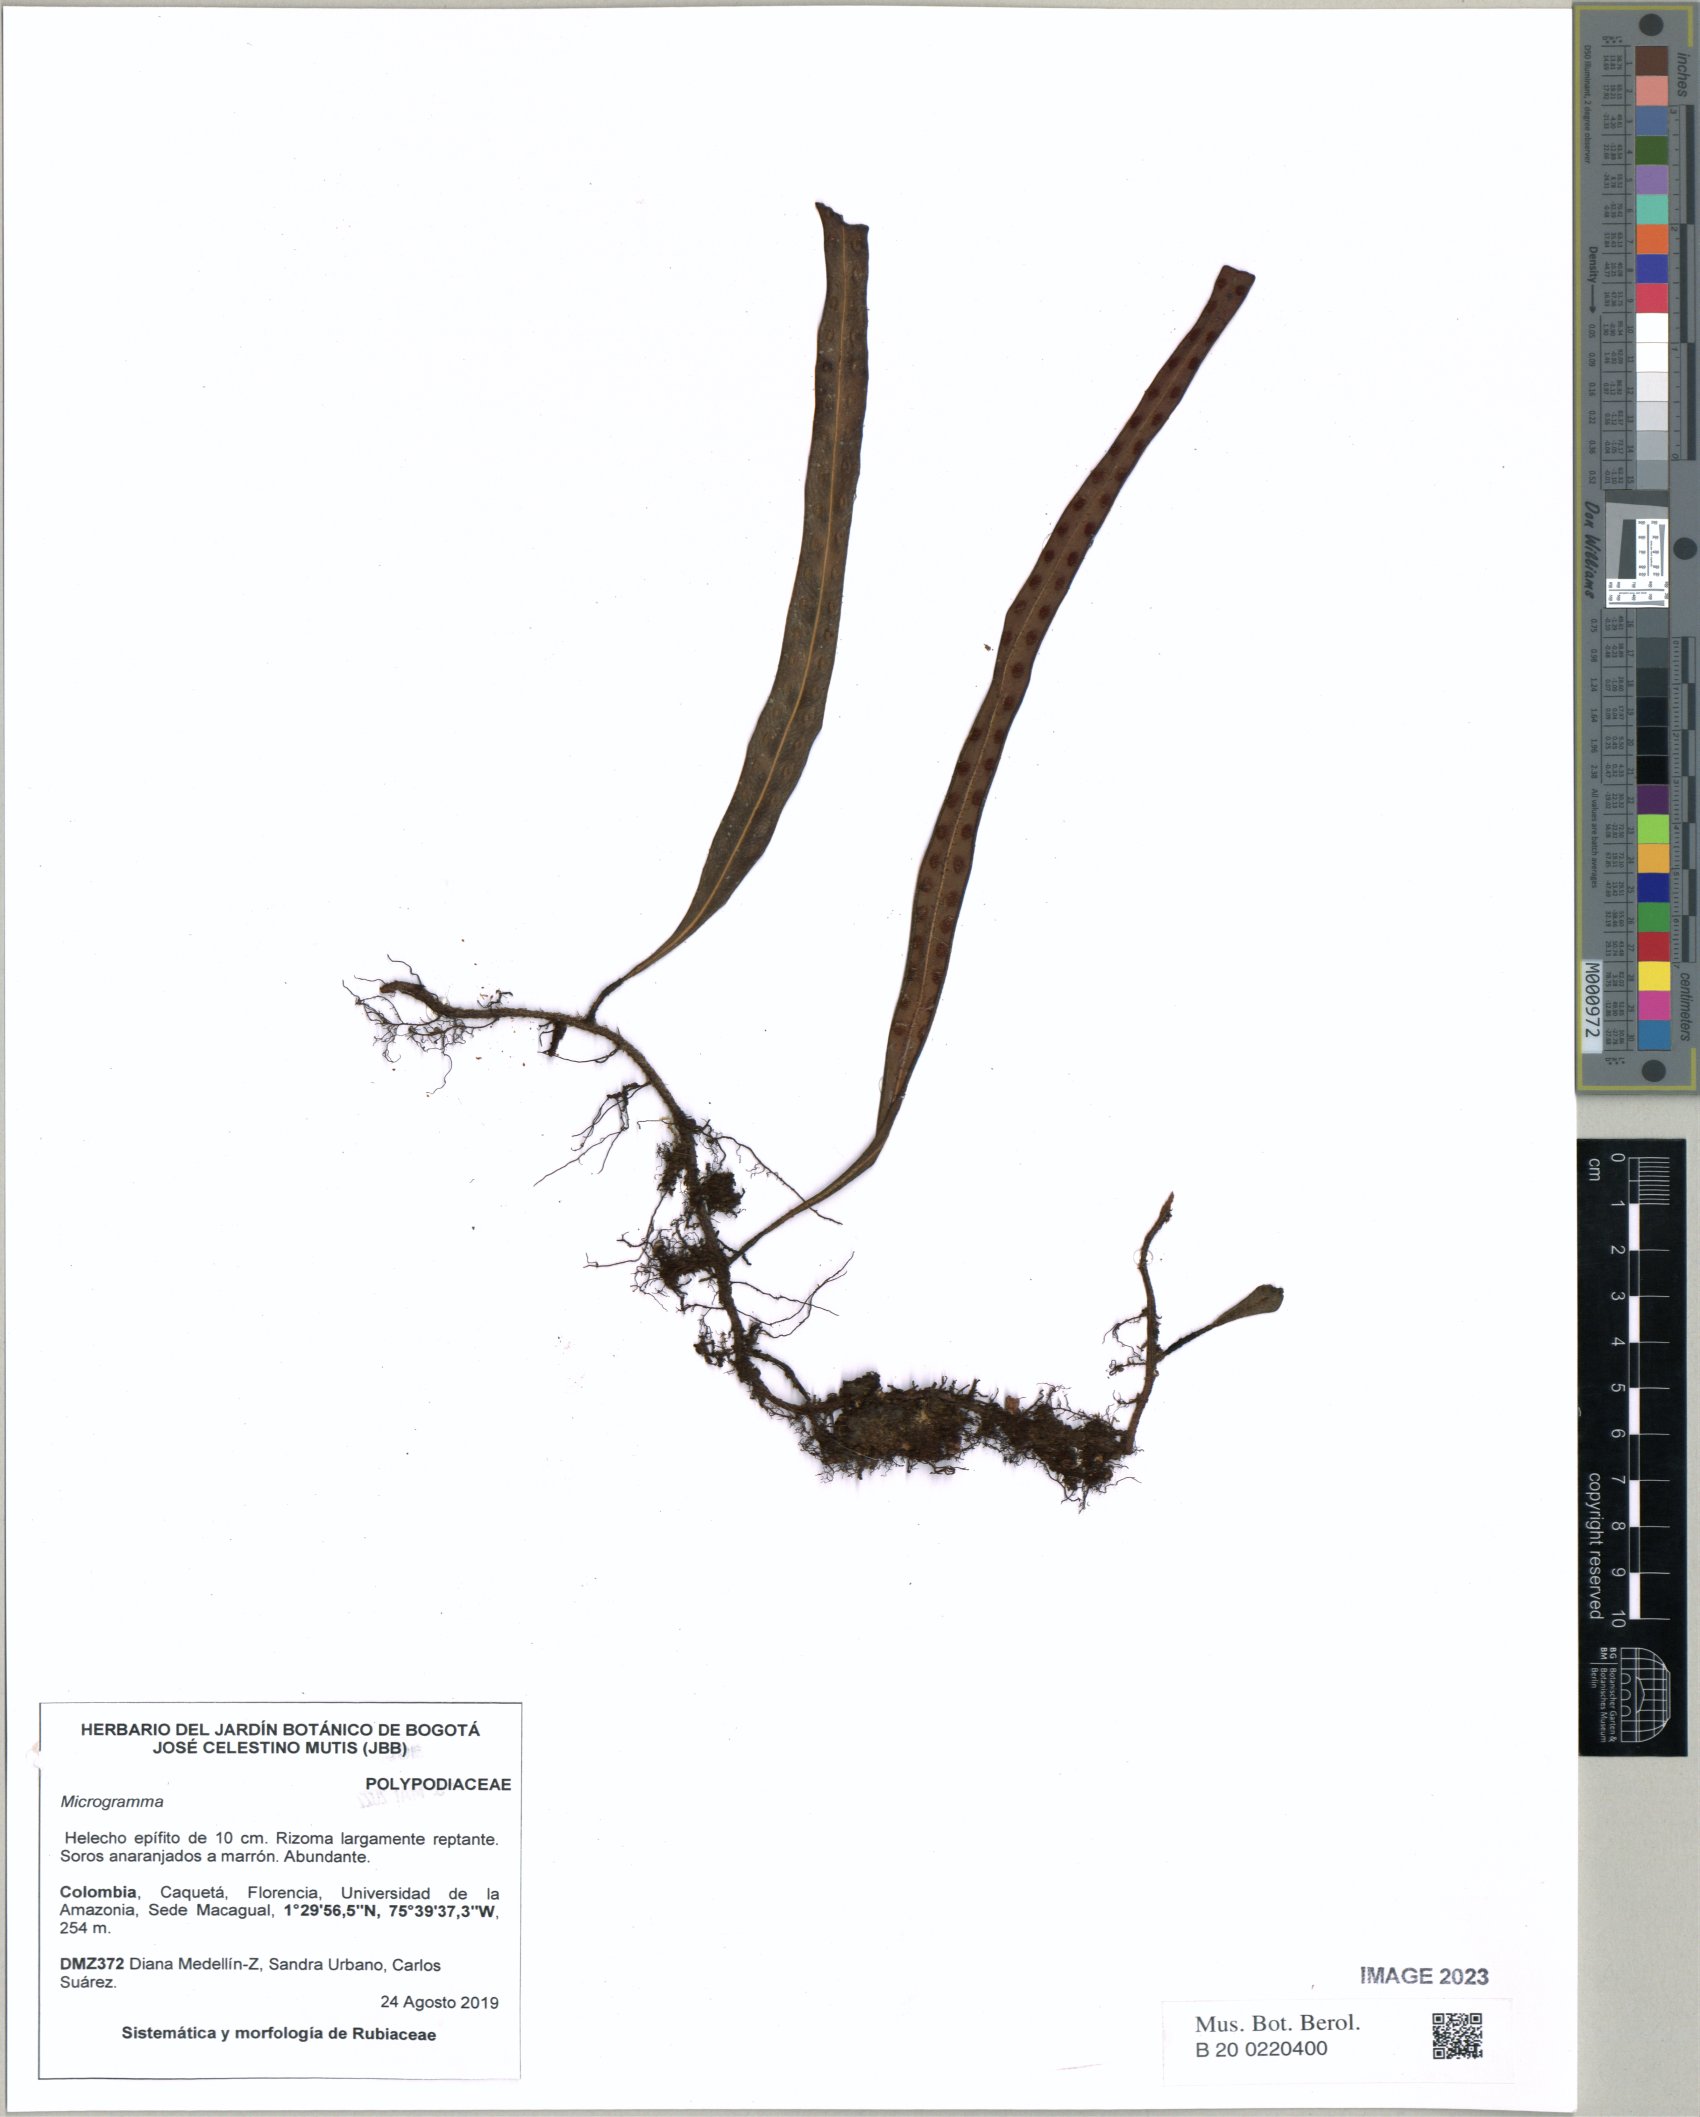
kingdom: Plantae
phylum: Tracheophyta
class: Polypodiopsida
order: Polypodiales
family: Polypodiaceae
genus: Microgramma
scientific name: Microgramma
